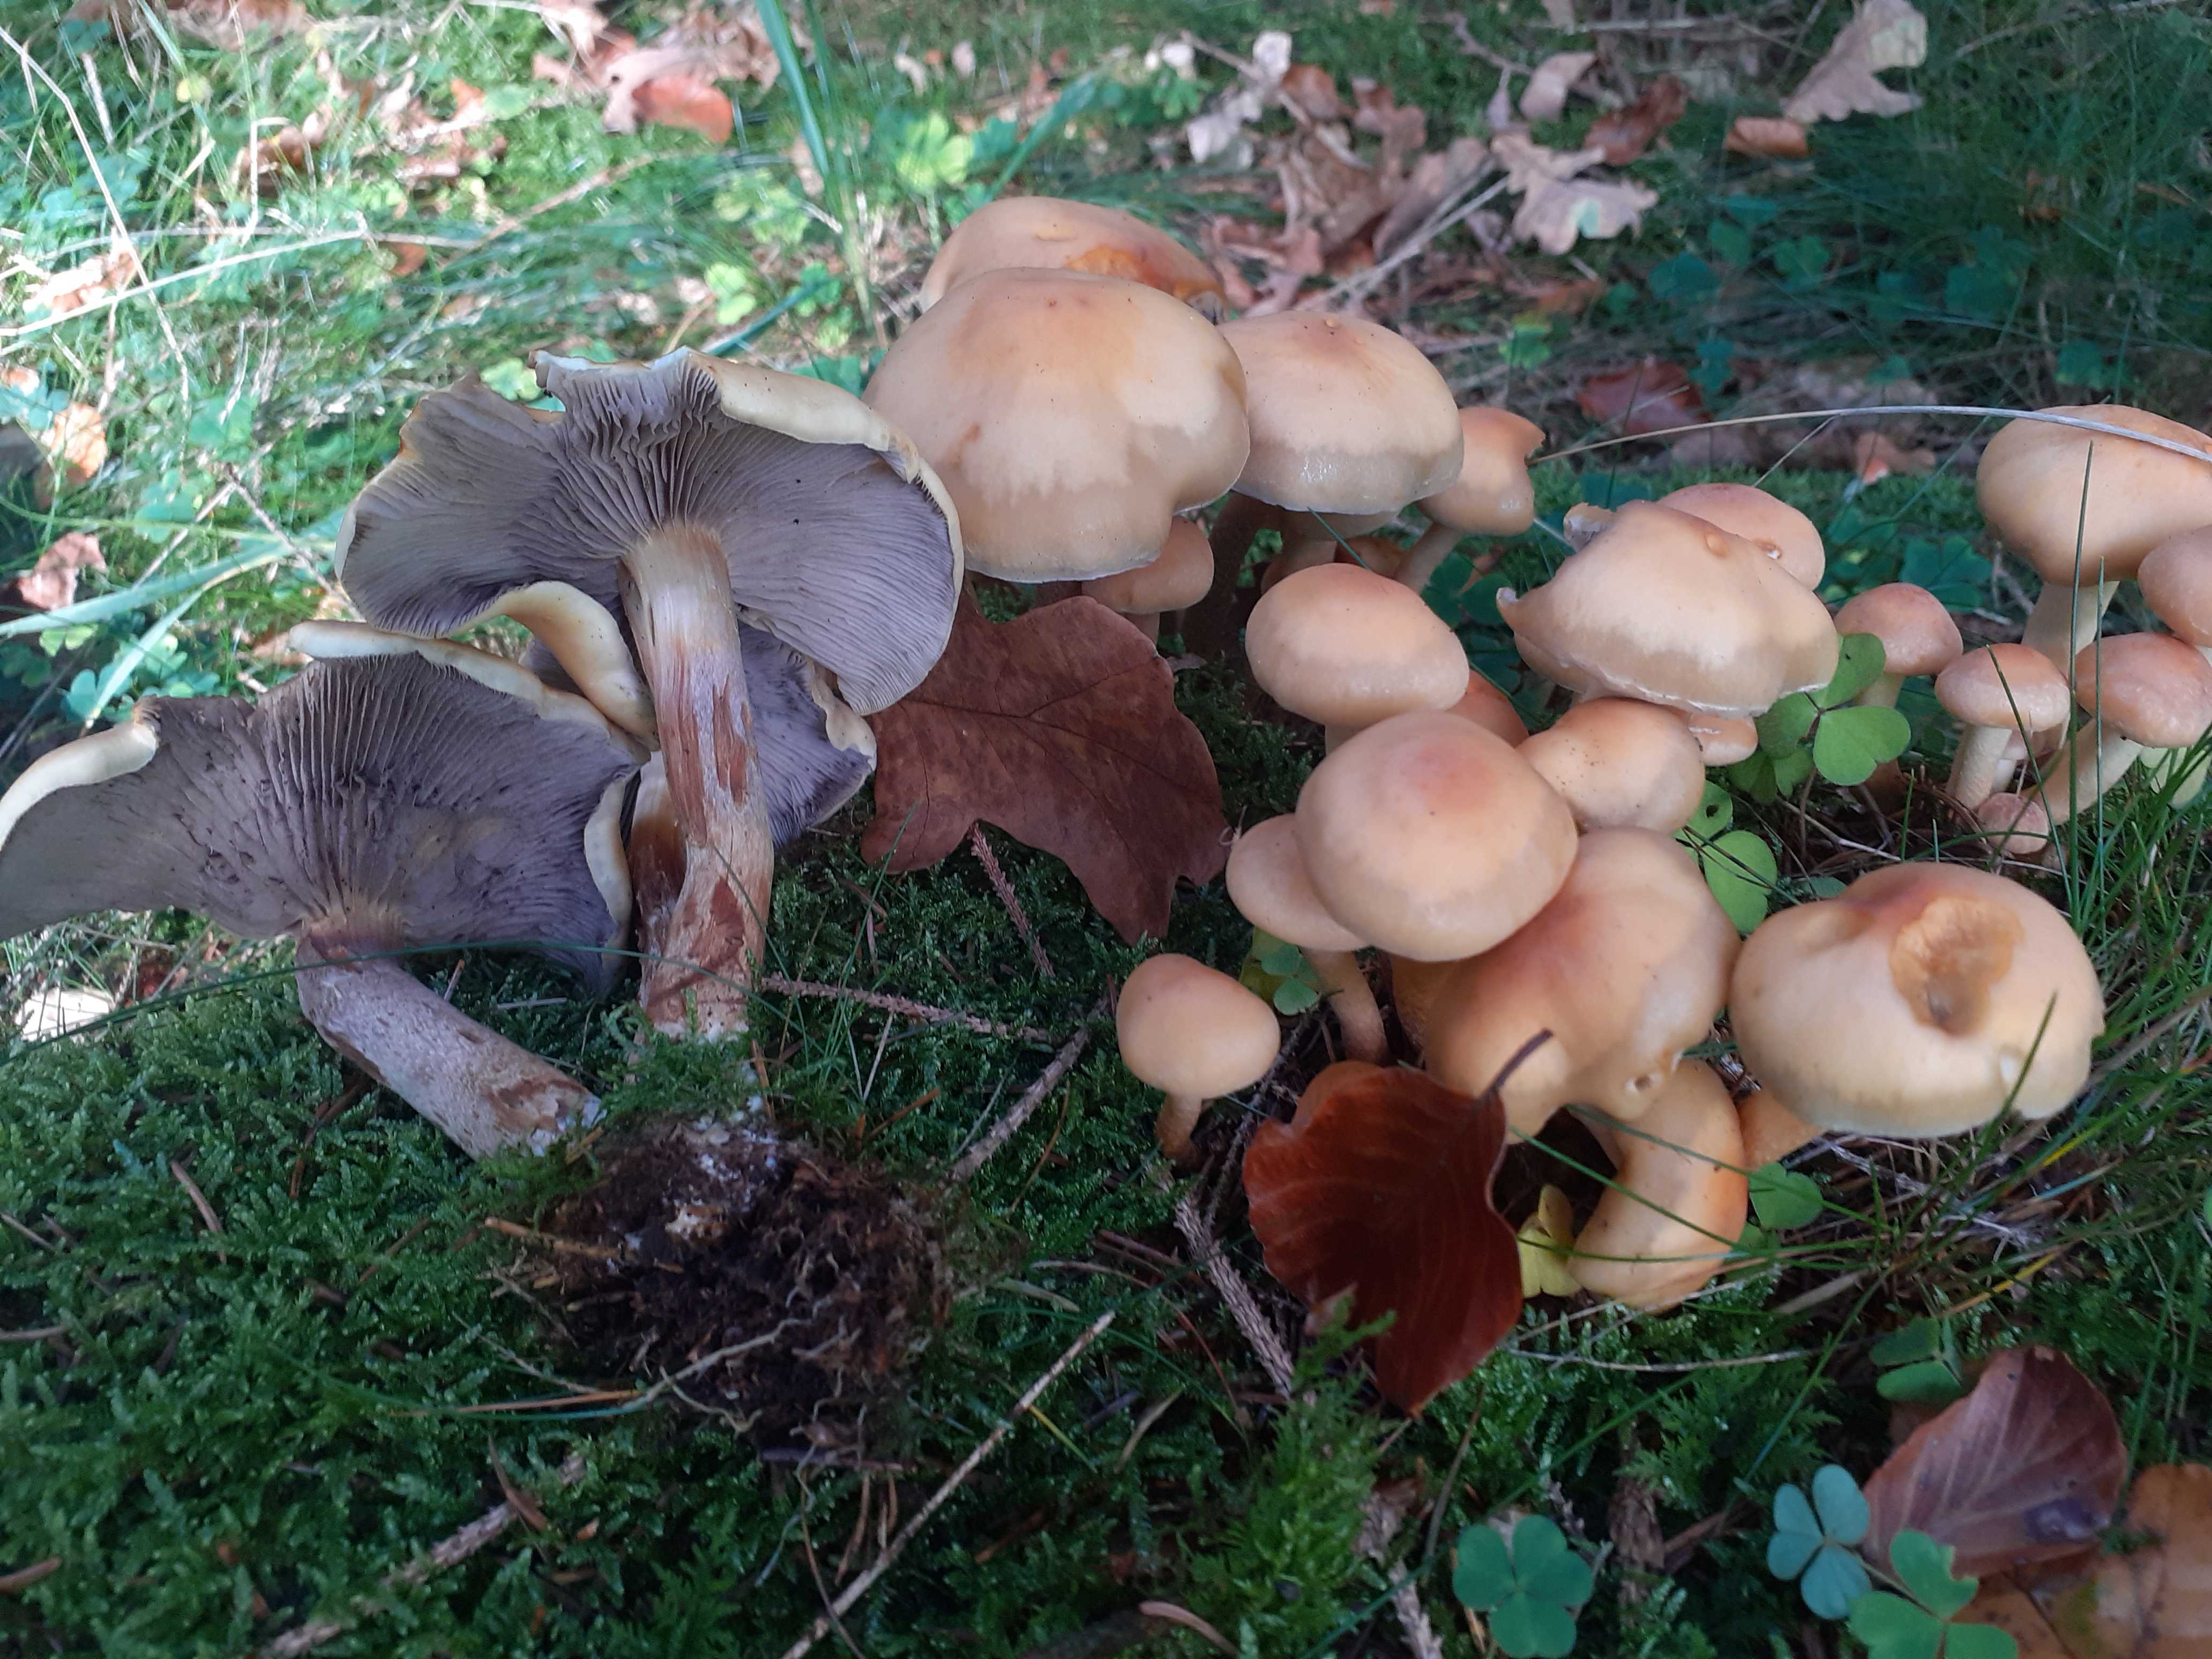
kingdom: Fungi
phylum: Basidiomycota
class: Agaricomycetes
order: Agaricales
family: Strophariaceae
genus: Hypholoma
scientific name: Hypholoma capnoides
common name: gran-svovlhat
